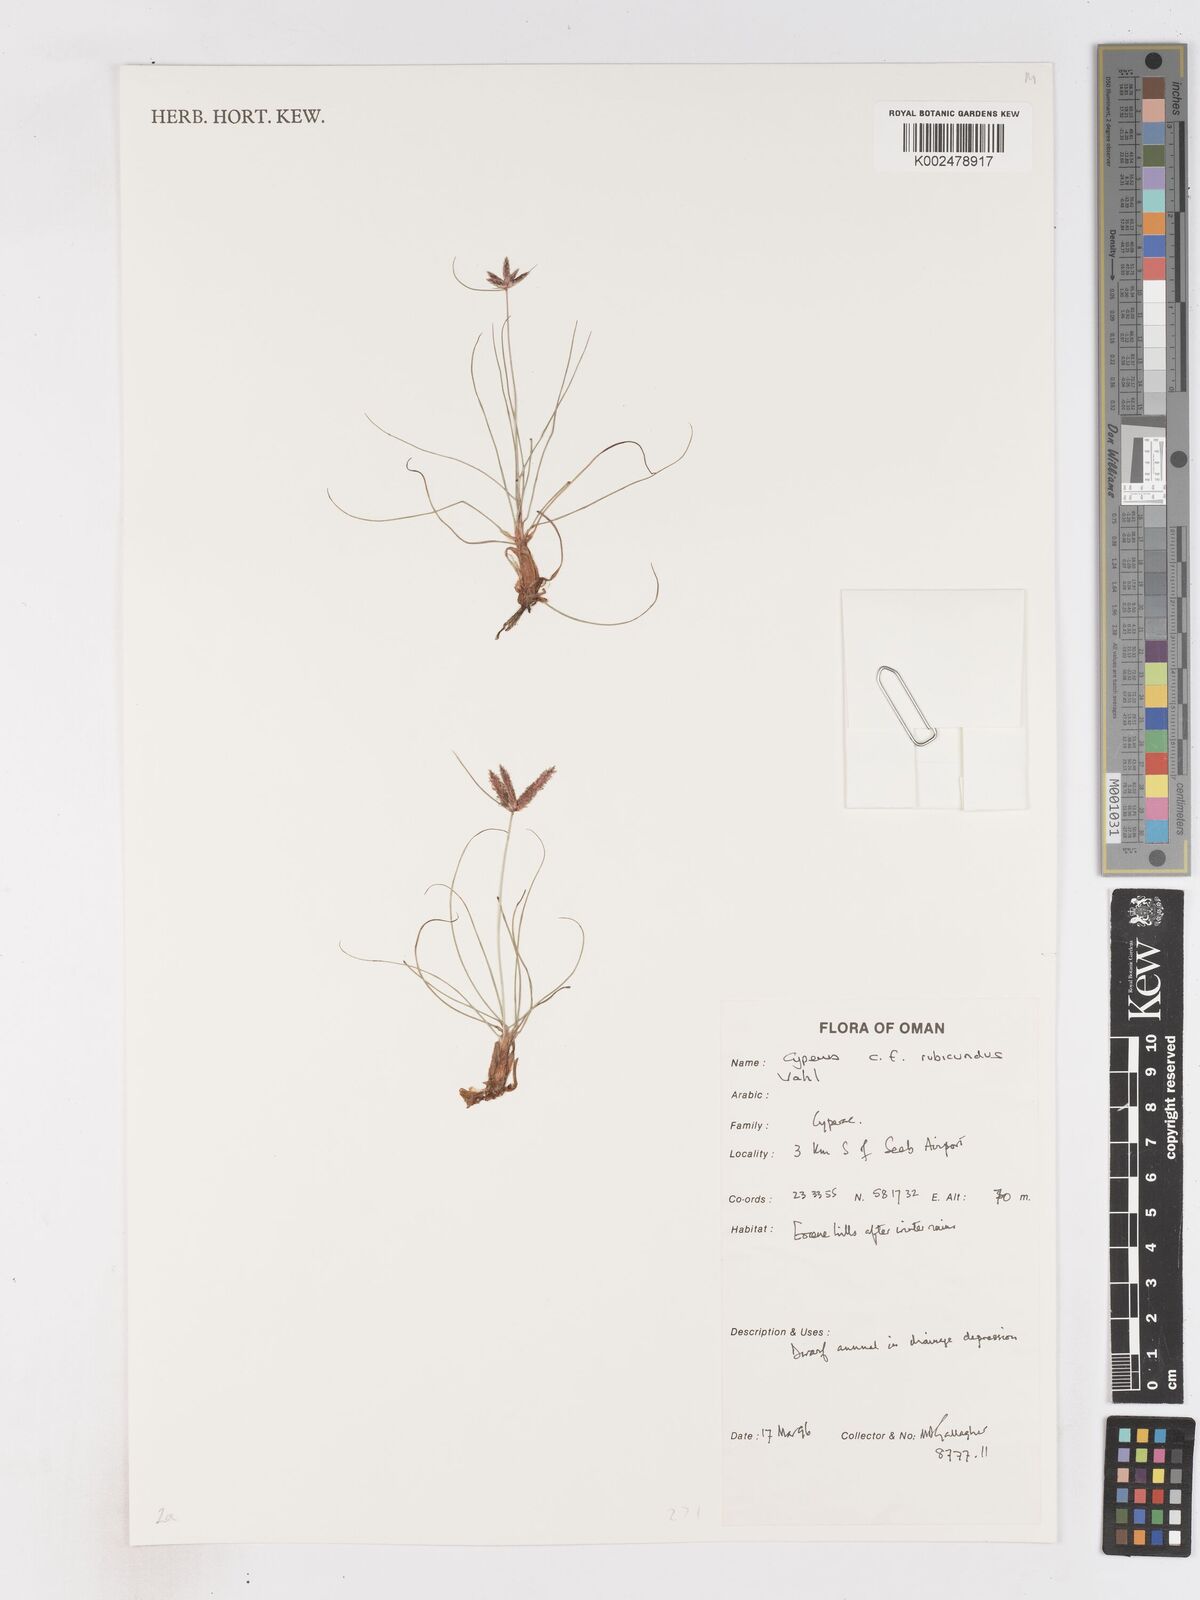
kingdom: Plantae
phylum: Tracheophyta
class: Liliopsida
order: Poales
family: Cyperaceae
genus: Cyperus
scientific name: Cyperus rubicundus
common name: Coco-grass
